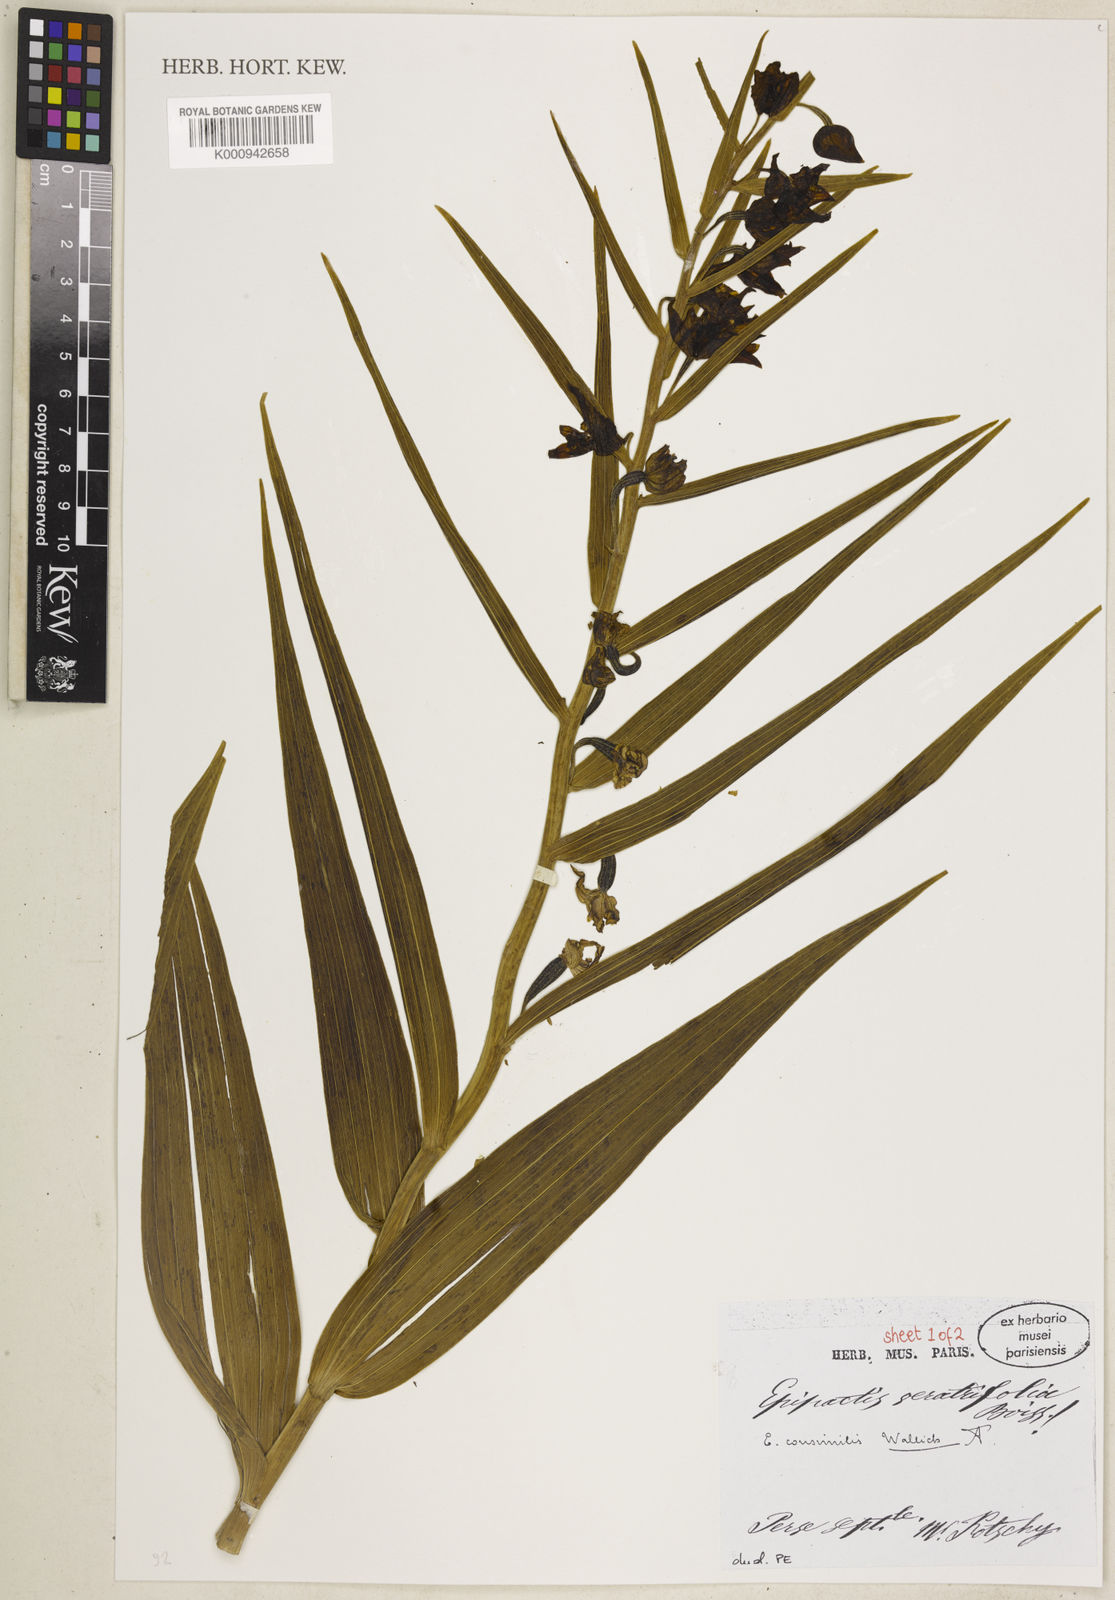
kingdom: Plantae
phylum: Tracheophyta
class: Liliopsida
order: Asparagales
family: Orchidaceae
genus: Epipactis
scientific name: Epipactis veratrifolia
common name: Eastern marsh helleborine
